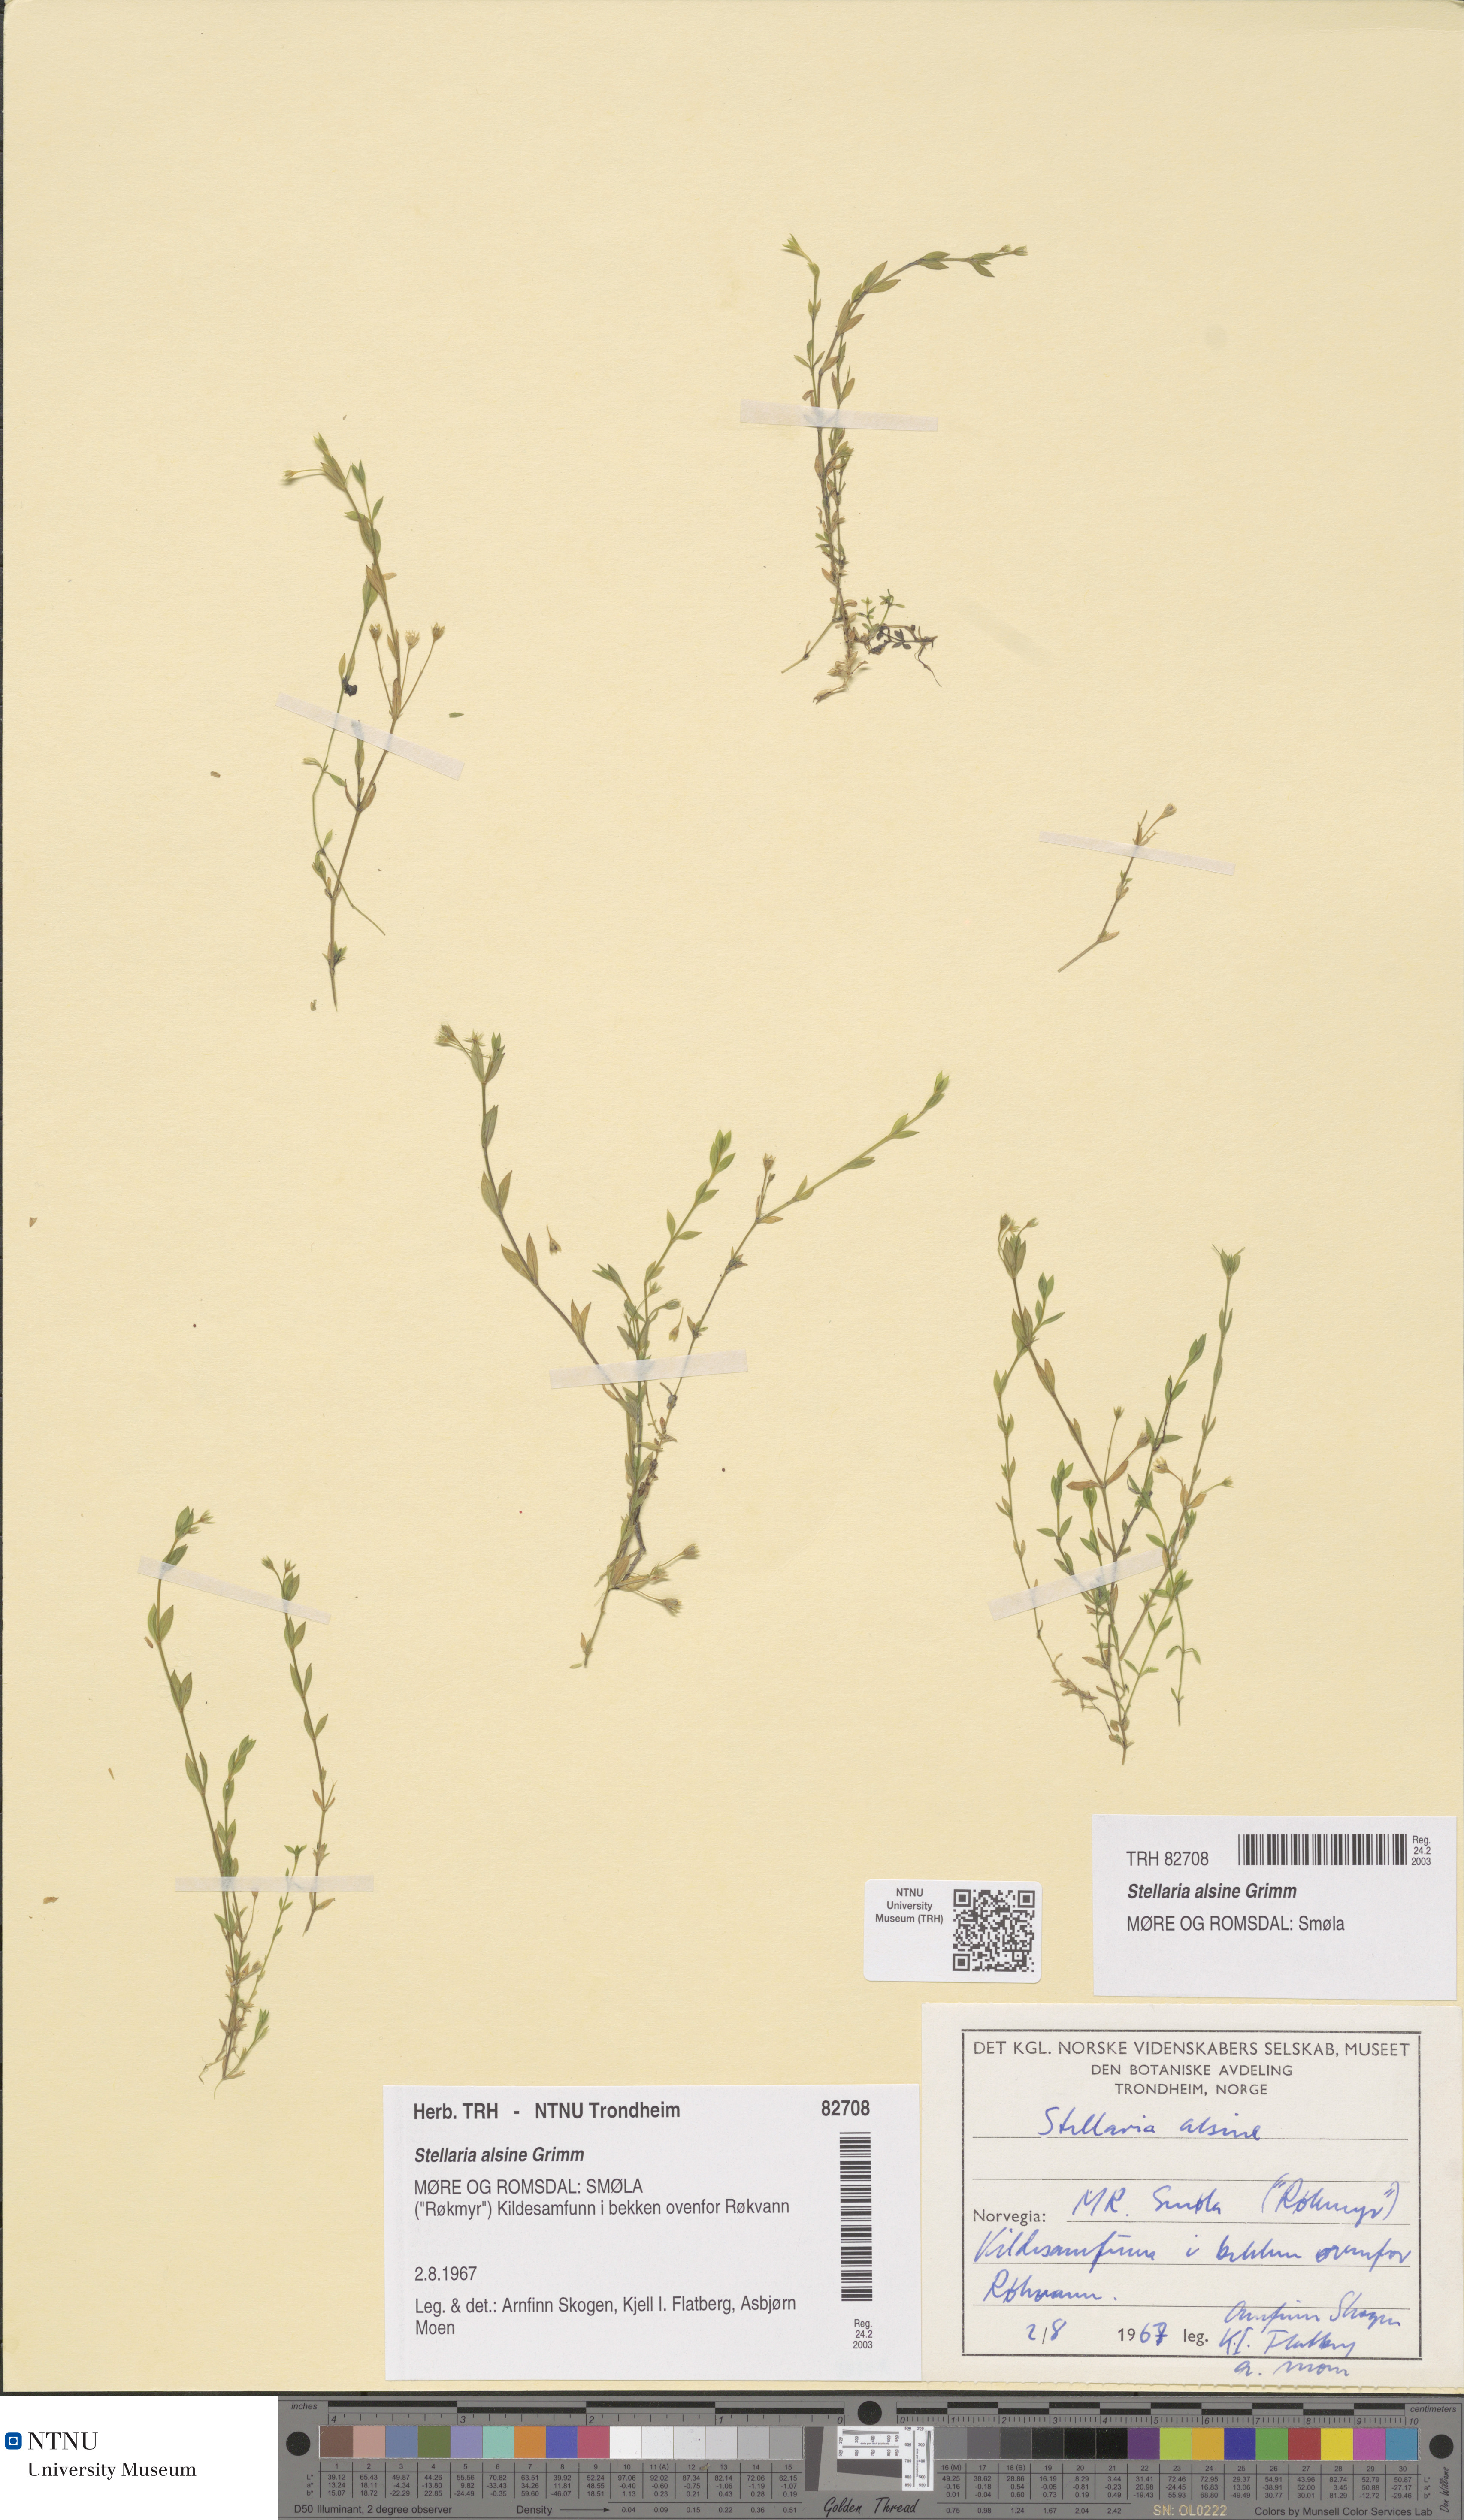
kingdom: Plantae
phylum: Tracheophyta
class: Magnoliopsida
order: Caryophyllales
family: Caryophyllaceae
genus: Stellaria
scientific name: Stellaria alsine
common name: Bog stitchwort
